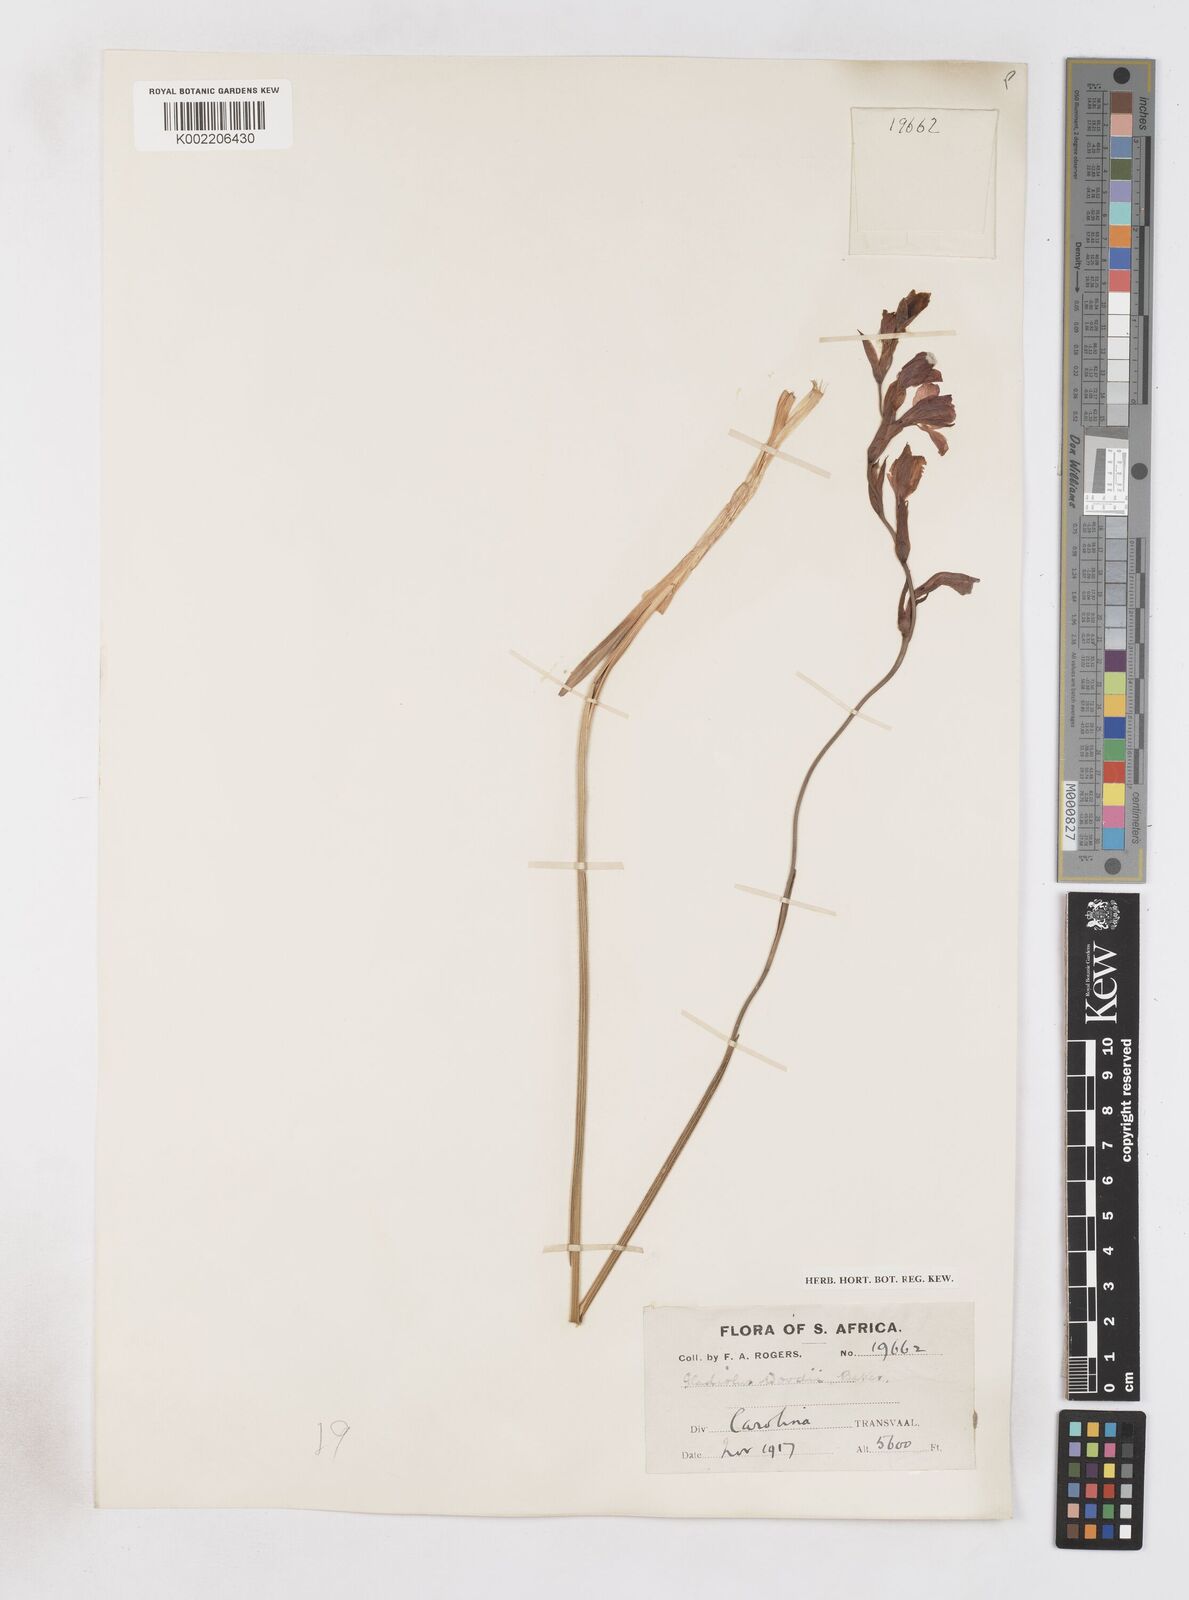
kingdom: Plantae
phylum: Tracheophyta
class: Liliopsida
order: Asparagales
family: Iridaceae
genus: Gladiolus
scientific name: Gladiolus woodii
